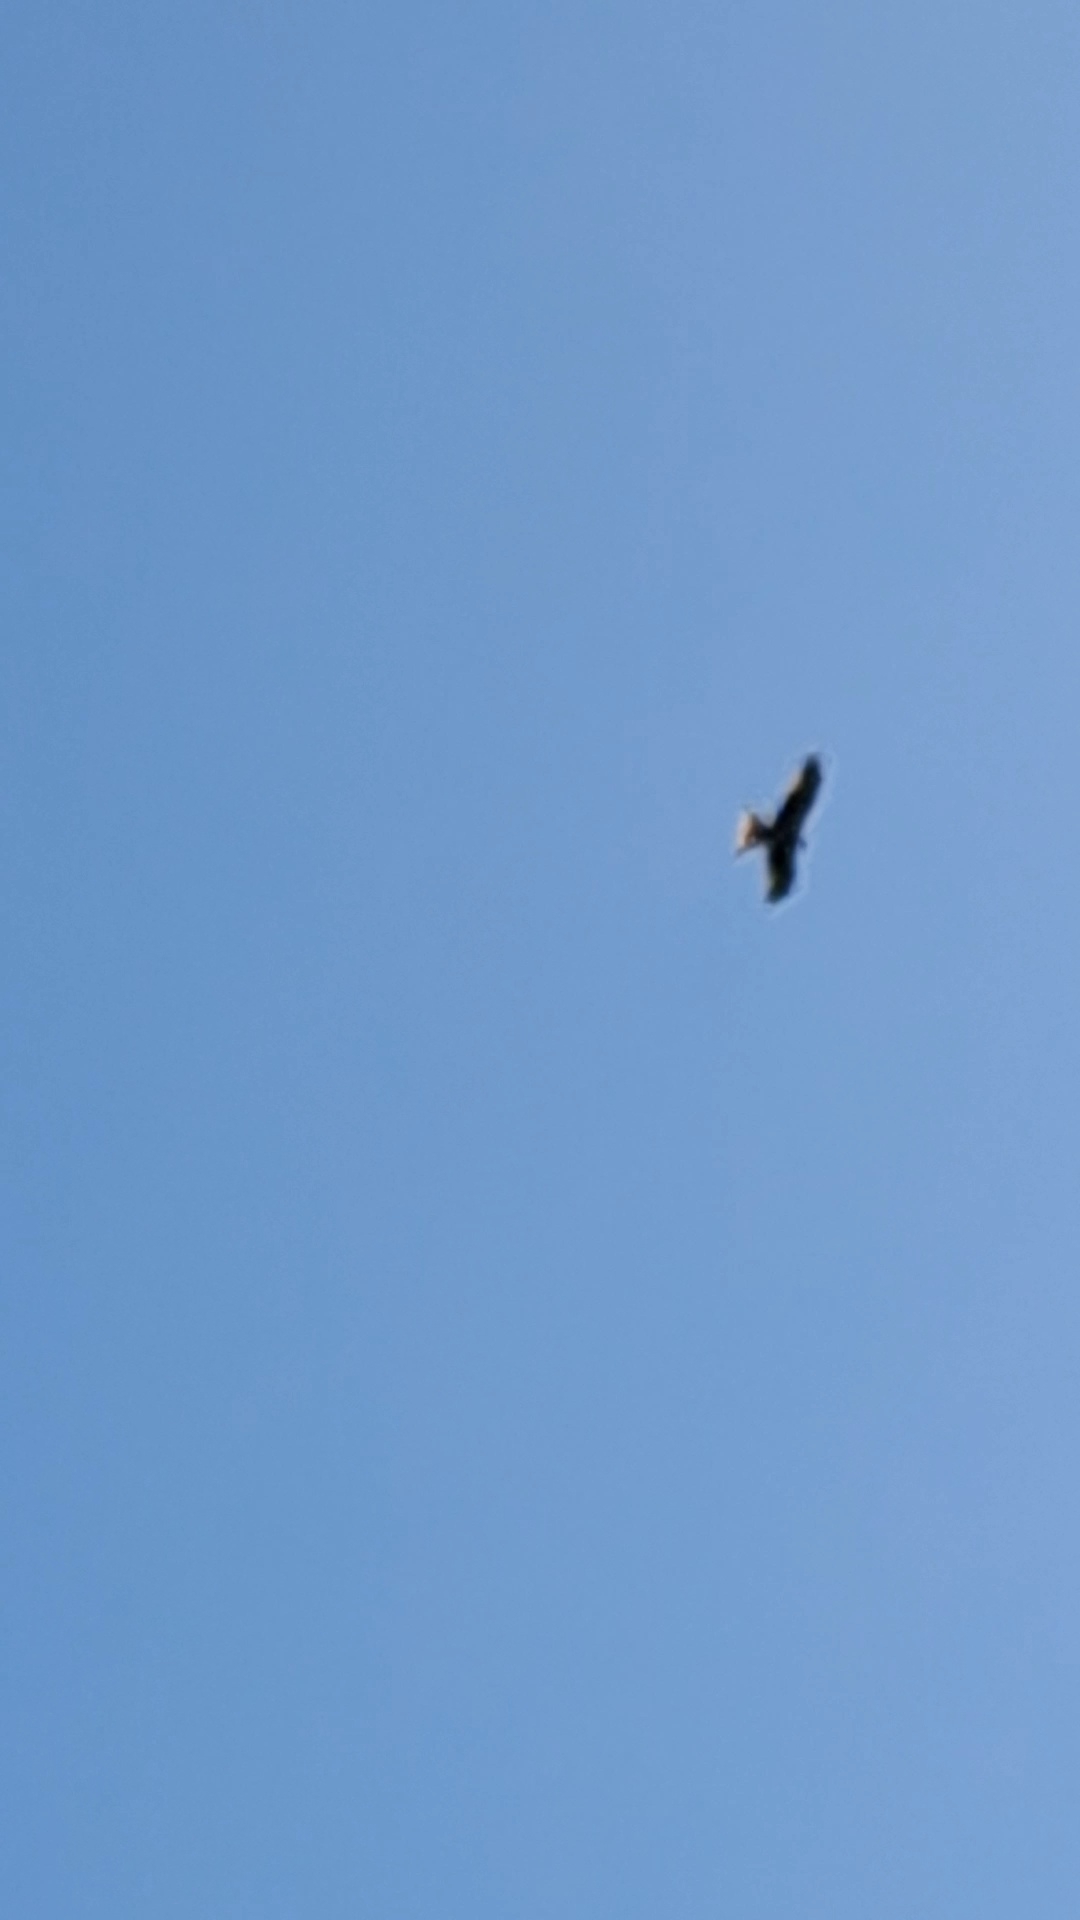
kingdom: Animalia
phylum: Chordata
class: Aves
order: Accipitriformes
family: Accipitridae
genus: Milvus
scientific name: Milvus milvus
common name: Rød glente
